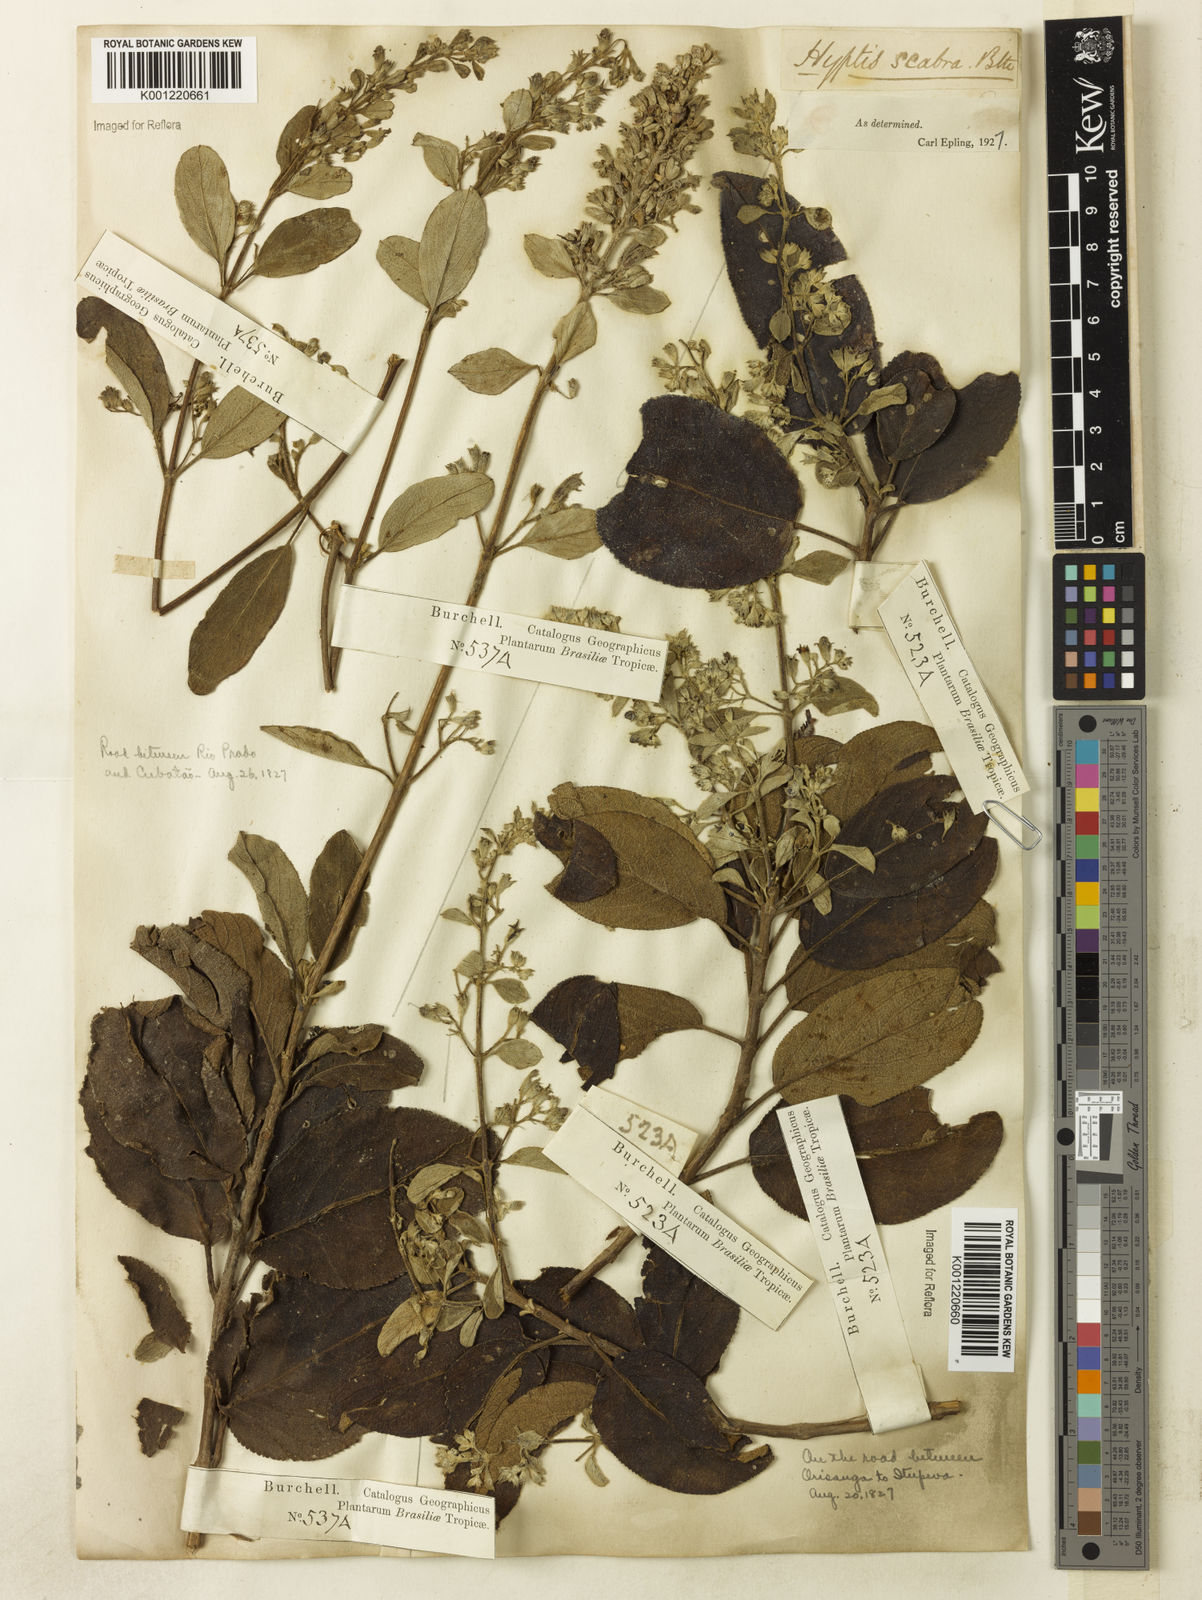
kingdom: Plantae
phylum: Tracheophyta
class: Magnoliopsida
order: Lamiales
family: Lamiaceae
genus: Hyptidendron
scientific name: Hyptidendron canum
